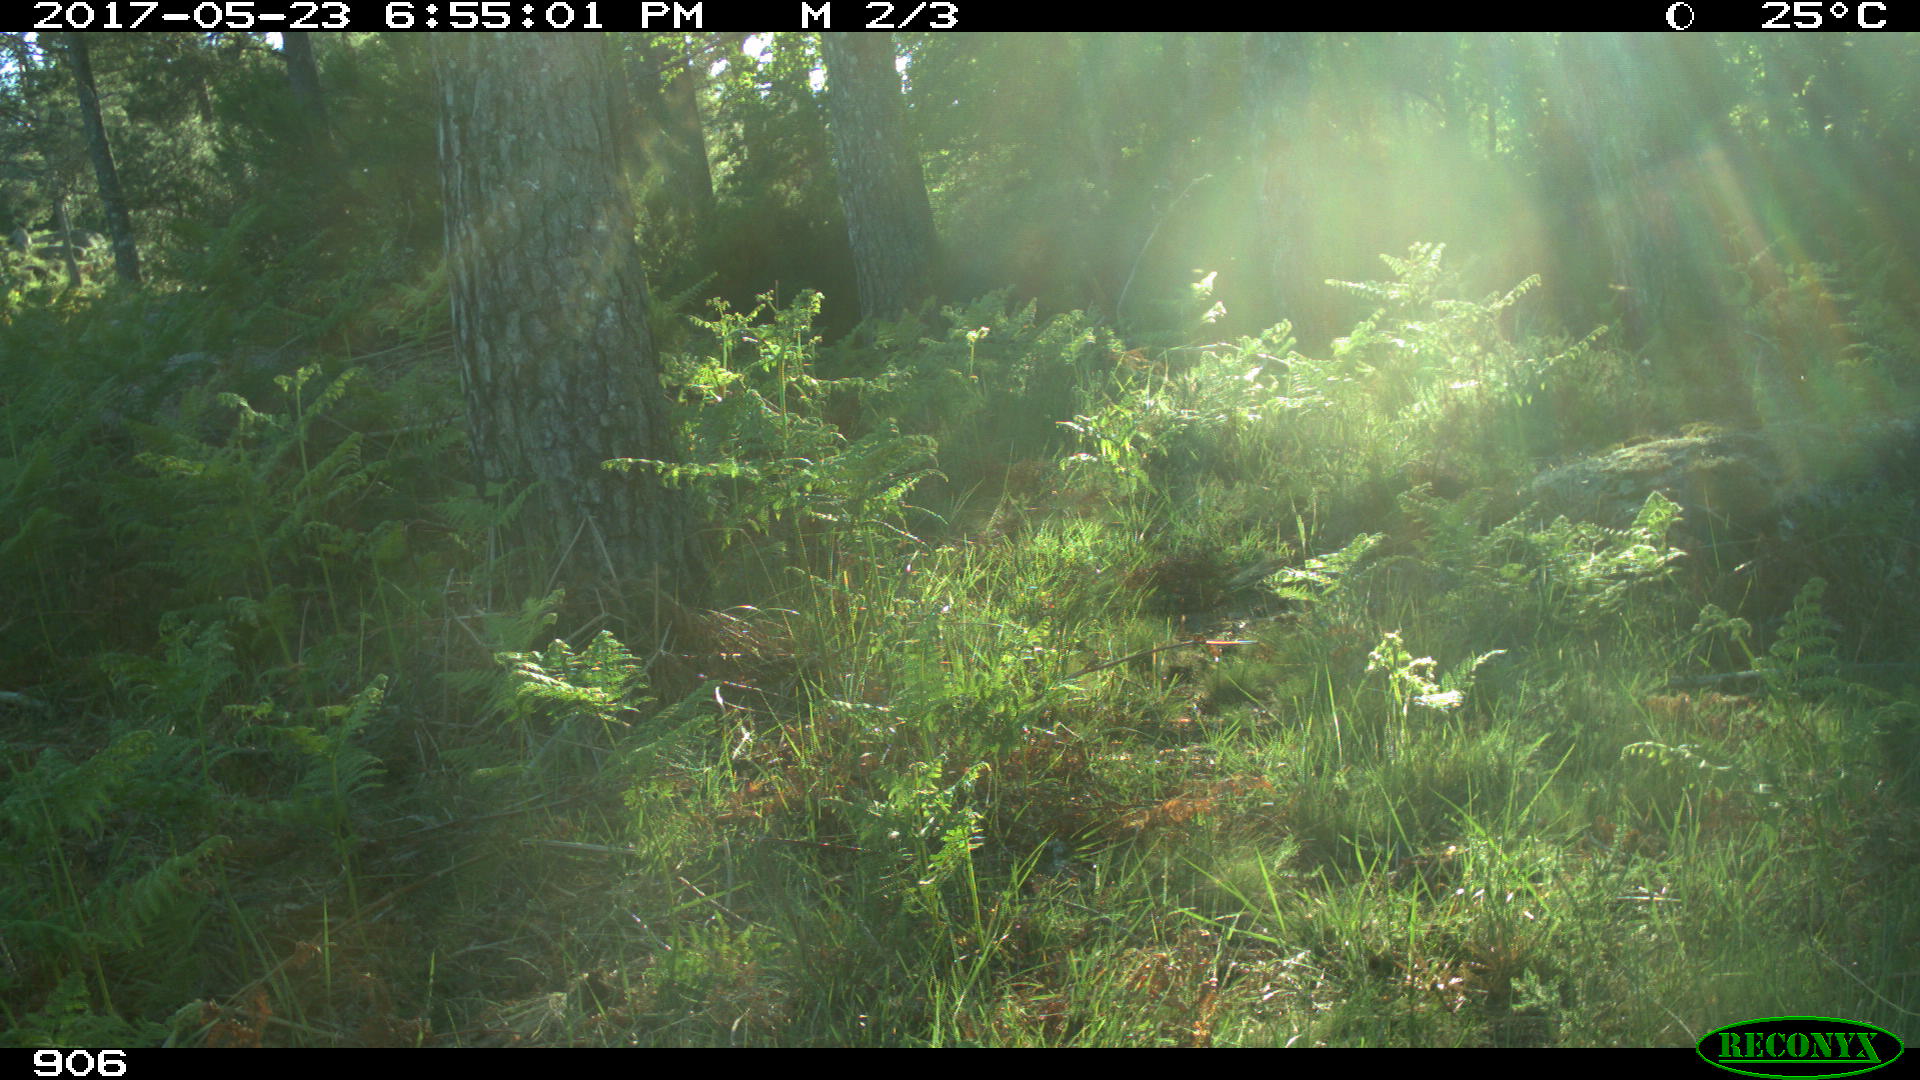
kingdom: Animalia
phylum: Chordata
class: Mammalia
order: Perissodactyla
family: Equidae
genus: Equus
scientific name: Equus caballus
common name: Horse
